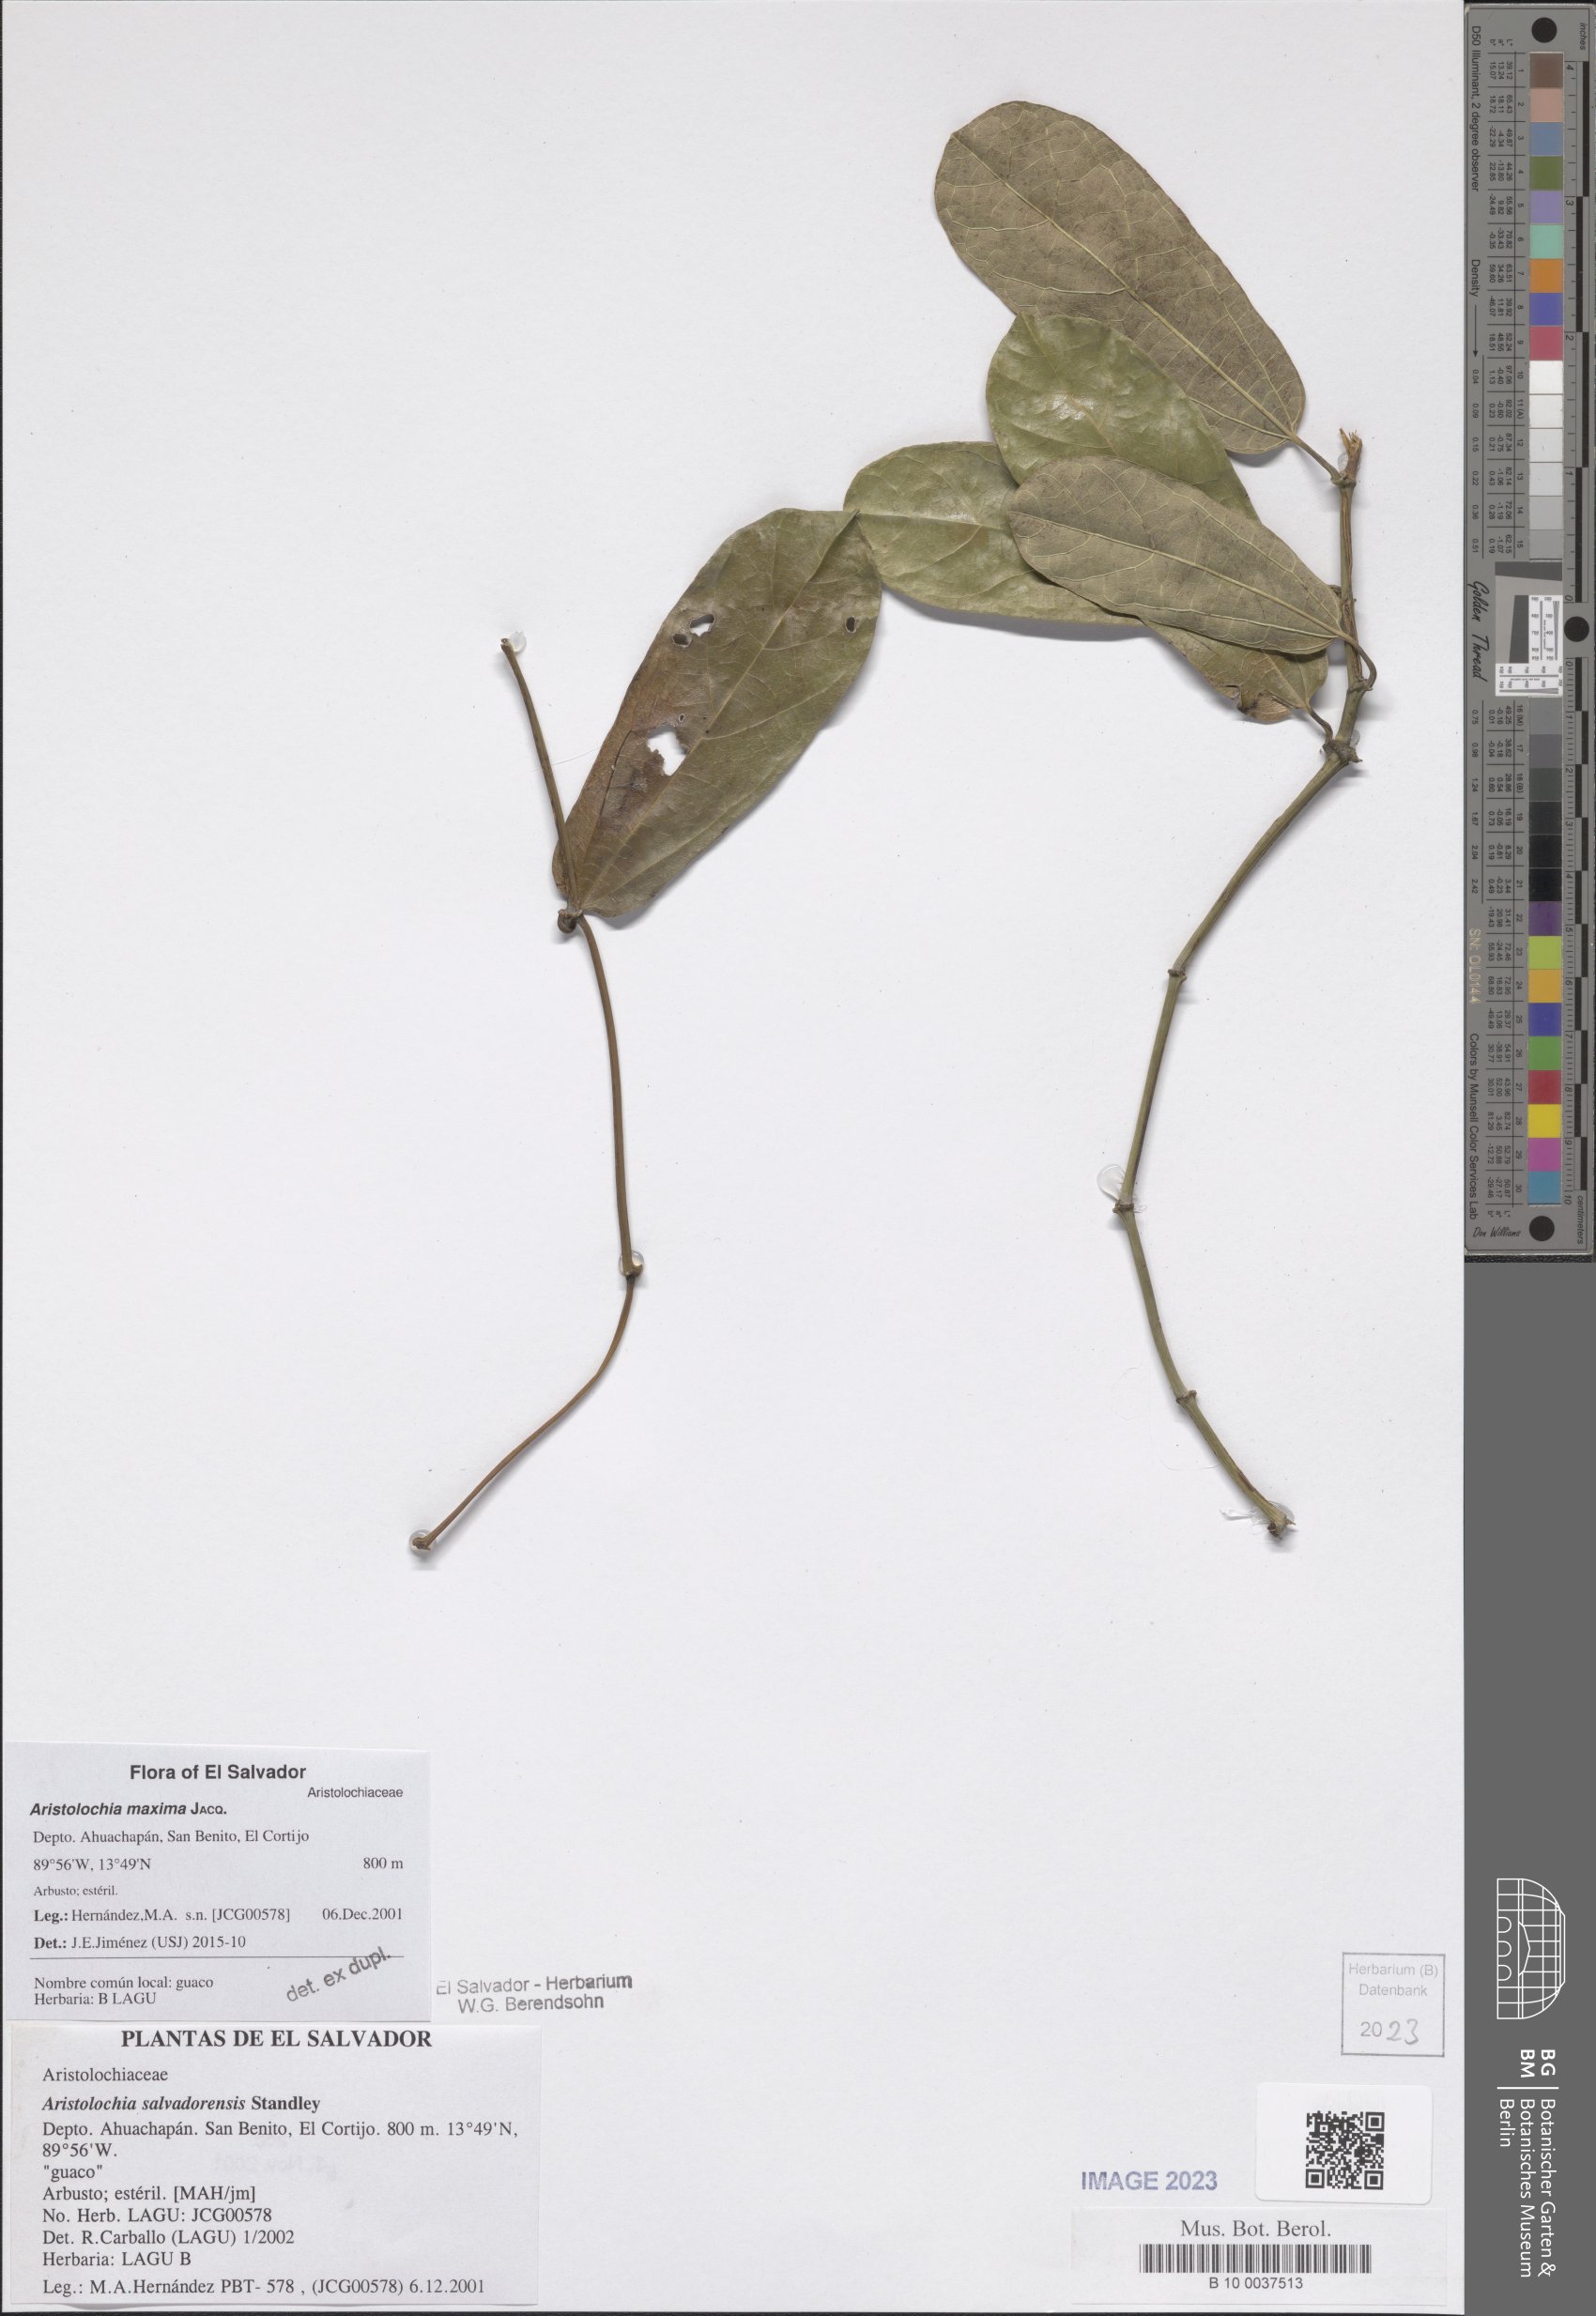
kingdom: Plantae
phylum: Tracheophyta
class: Magnoliopsida
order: Piperales
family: Aristolochiaceae
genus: Aristolochia
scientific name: Aristolochia maxima
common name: Florida dutchman's pipe
